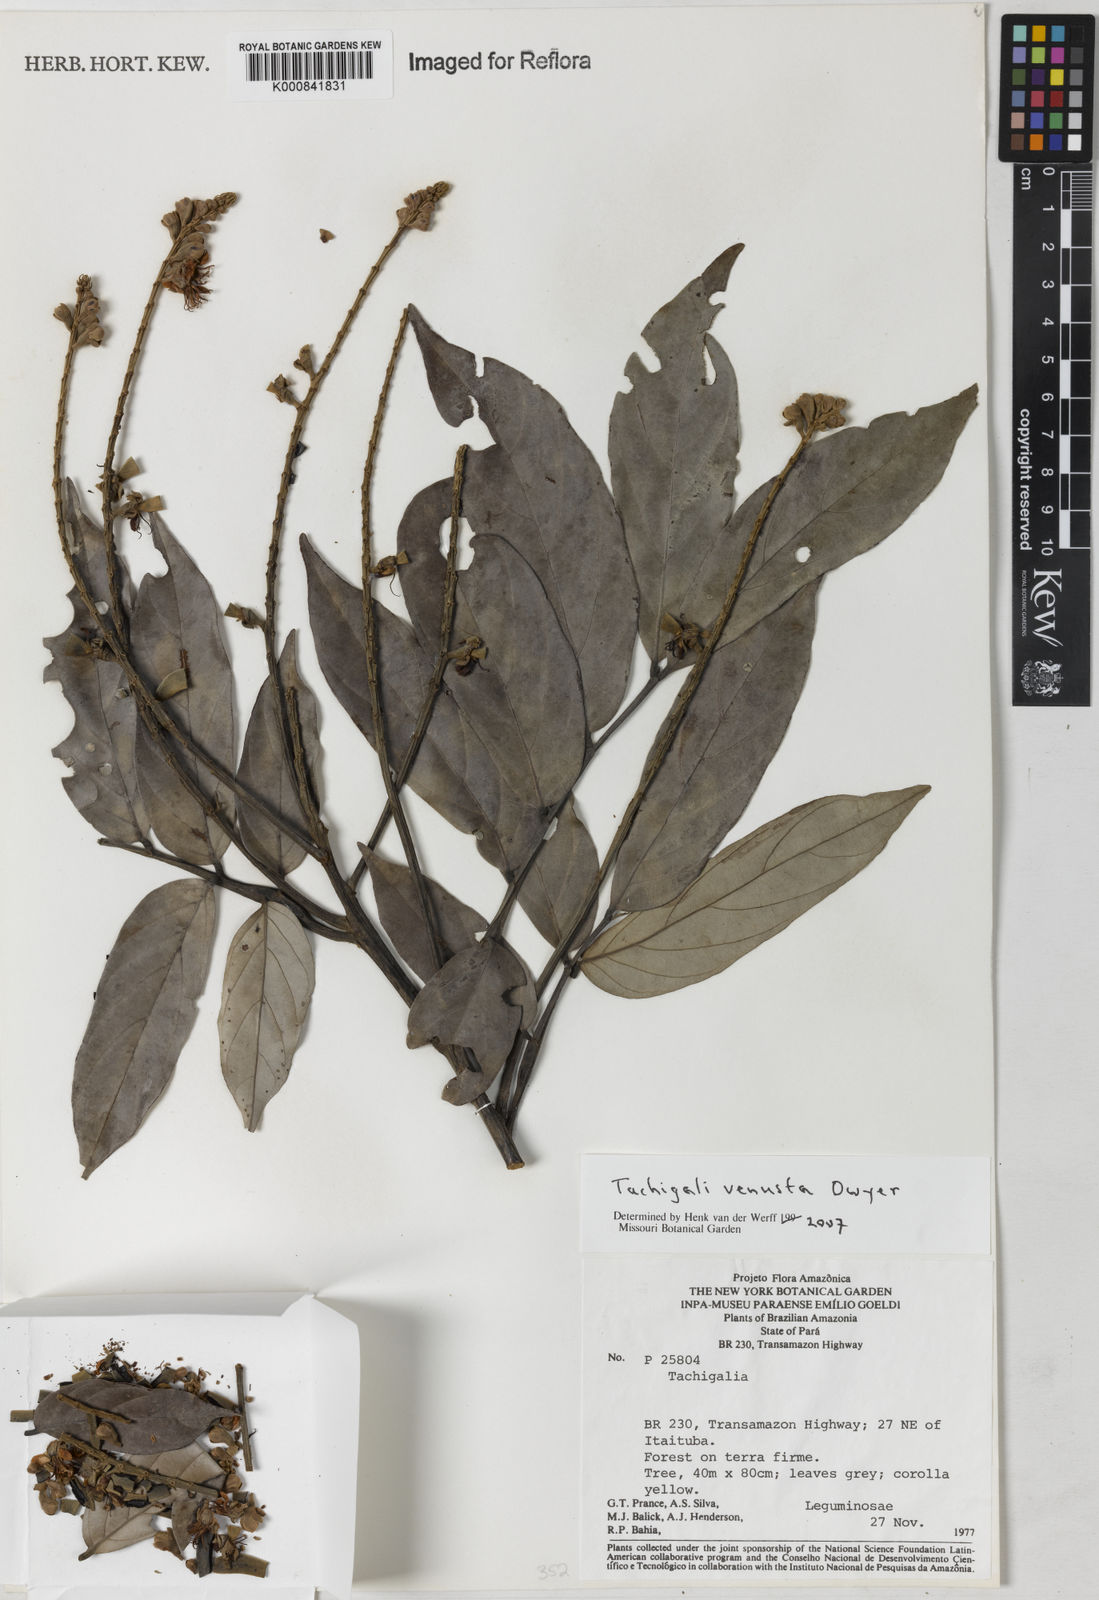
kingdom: Plantae
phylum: Tracheophyta
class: Magnoliopsida
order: Fabales
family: Fabaceae
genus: Tachigali
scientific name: Tachigali venusta
